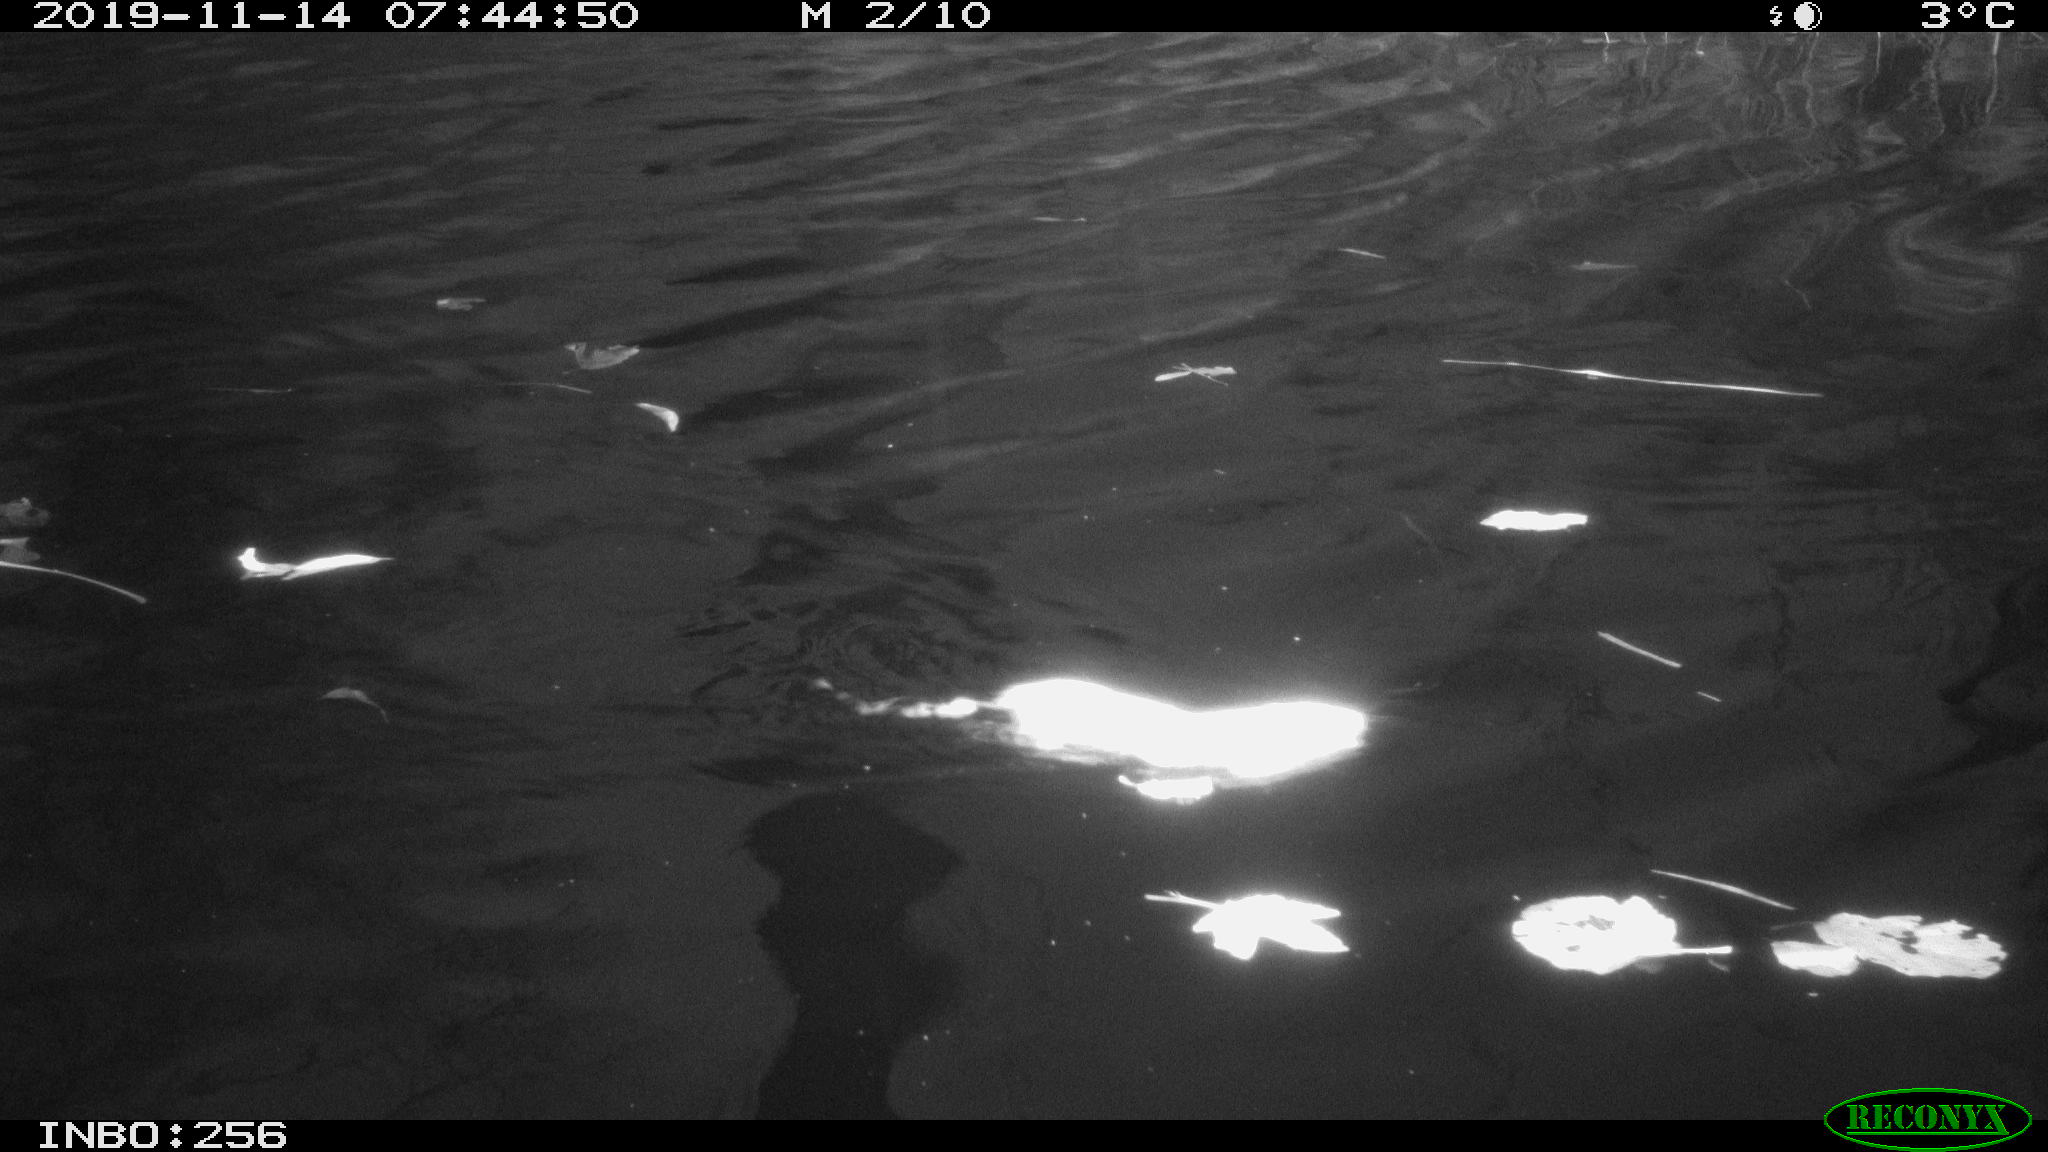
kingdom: Animalia
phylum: Chordata
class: Mammalia
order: Rodentia
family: Muridae
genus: Rattus
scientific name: Rattus norvegicus
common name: Brown rat
